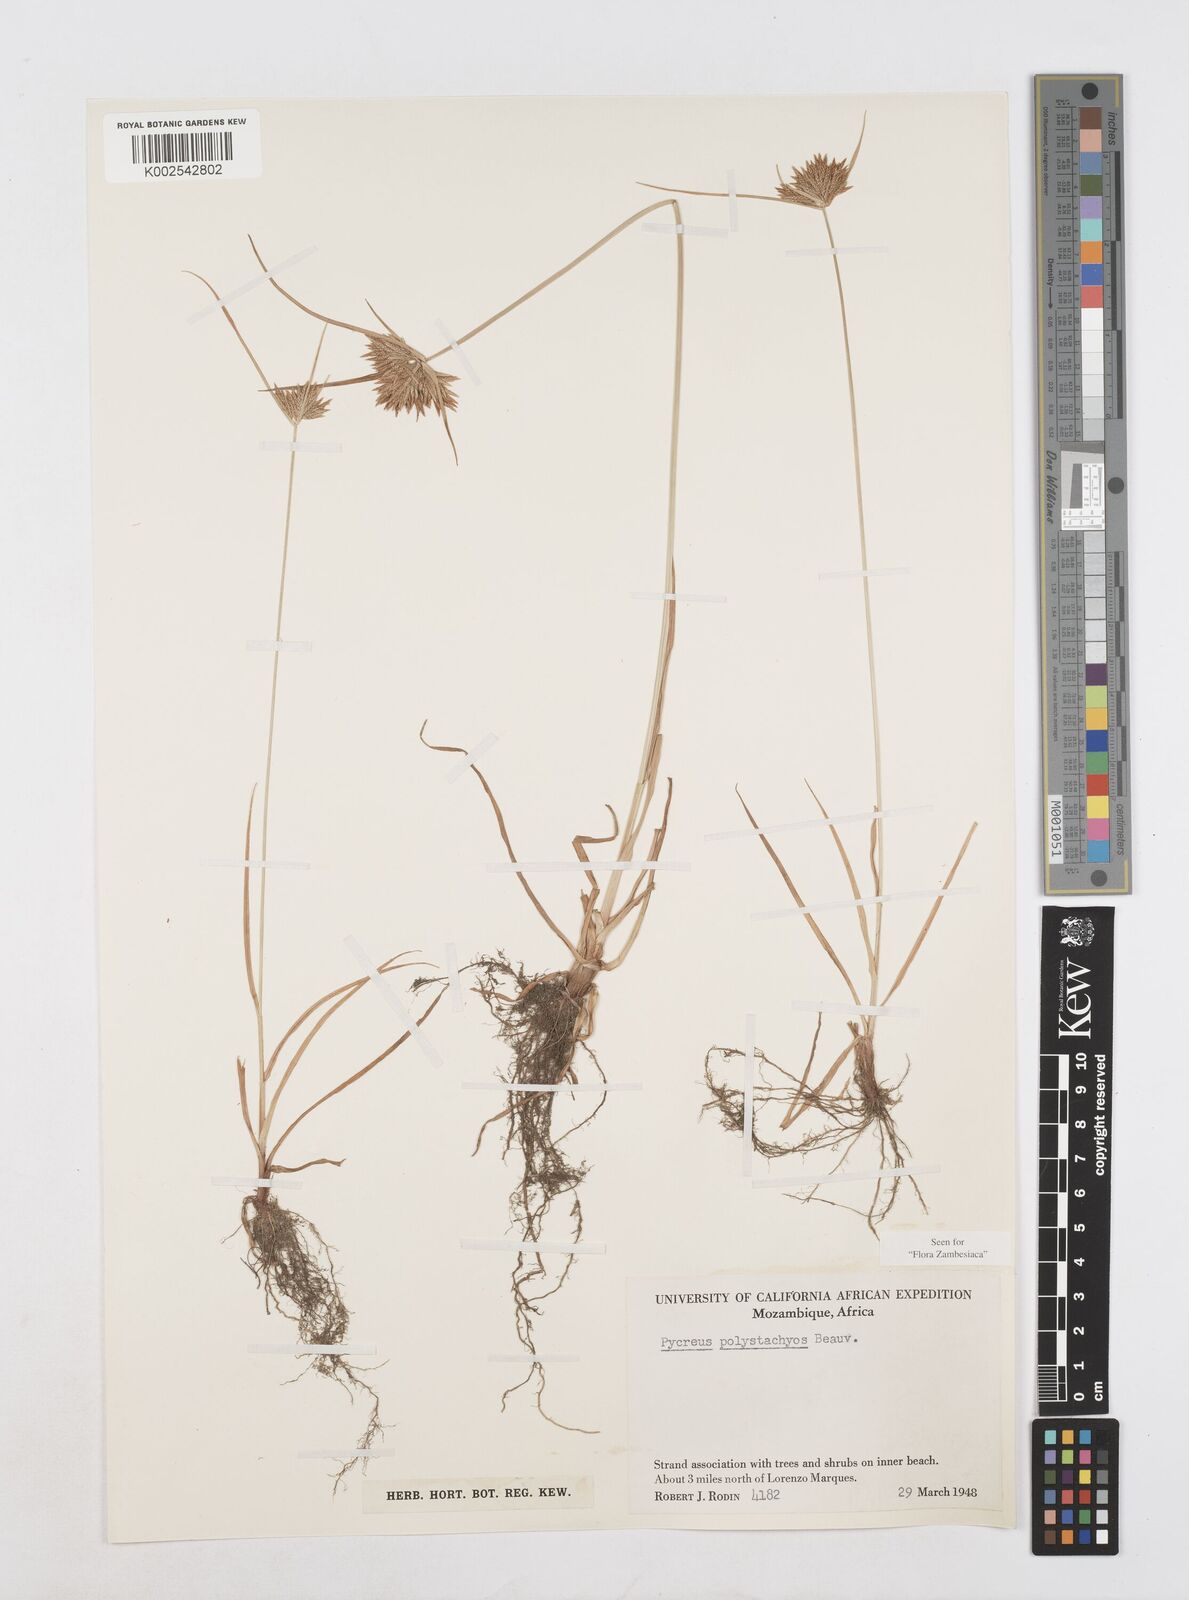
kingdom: Plantae
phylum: Tracheophyta
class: Liliopsida
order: Poales
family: Cyperaceae
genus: Cyperus
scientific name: Cyperus polystachyos
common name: Bunchy flat sedge
